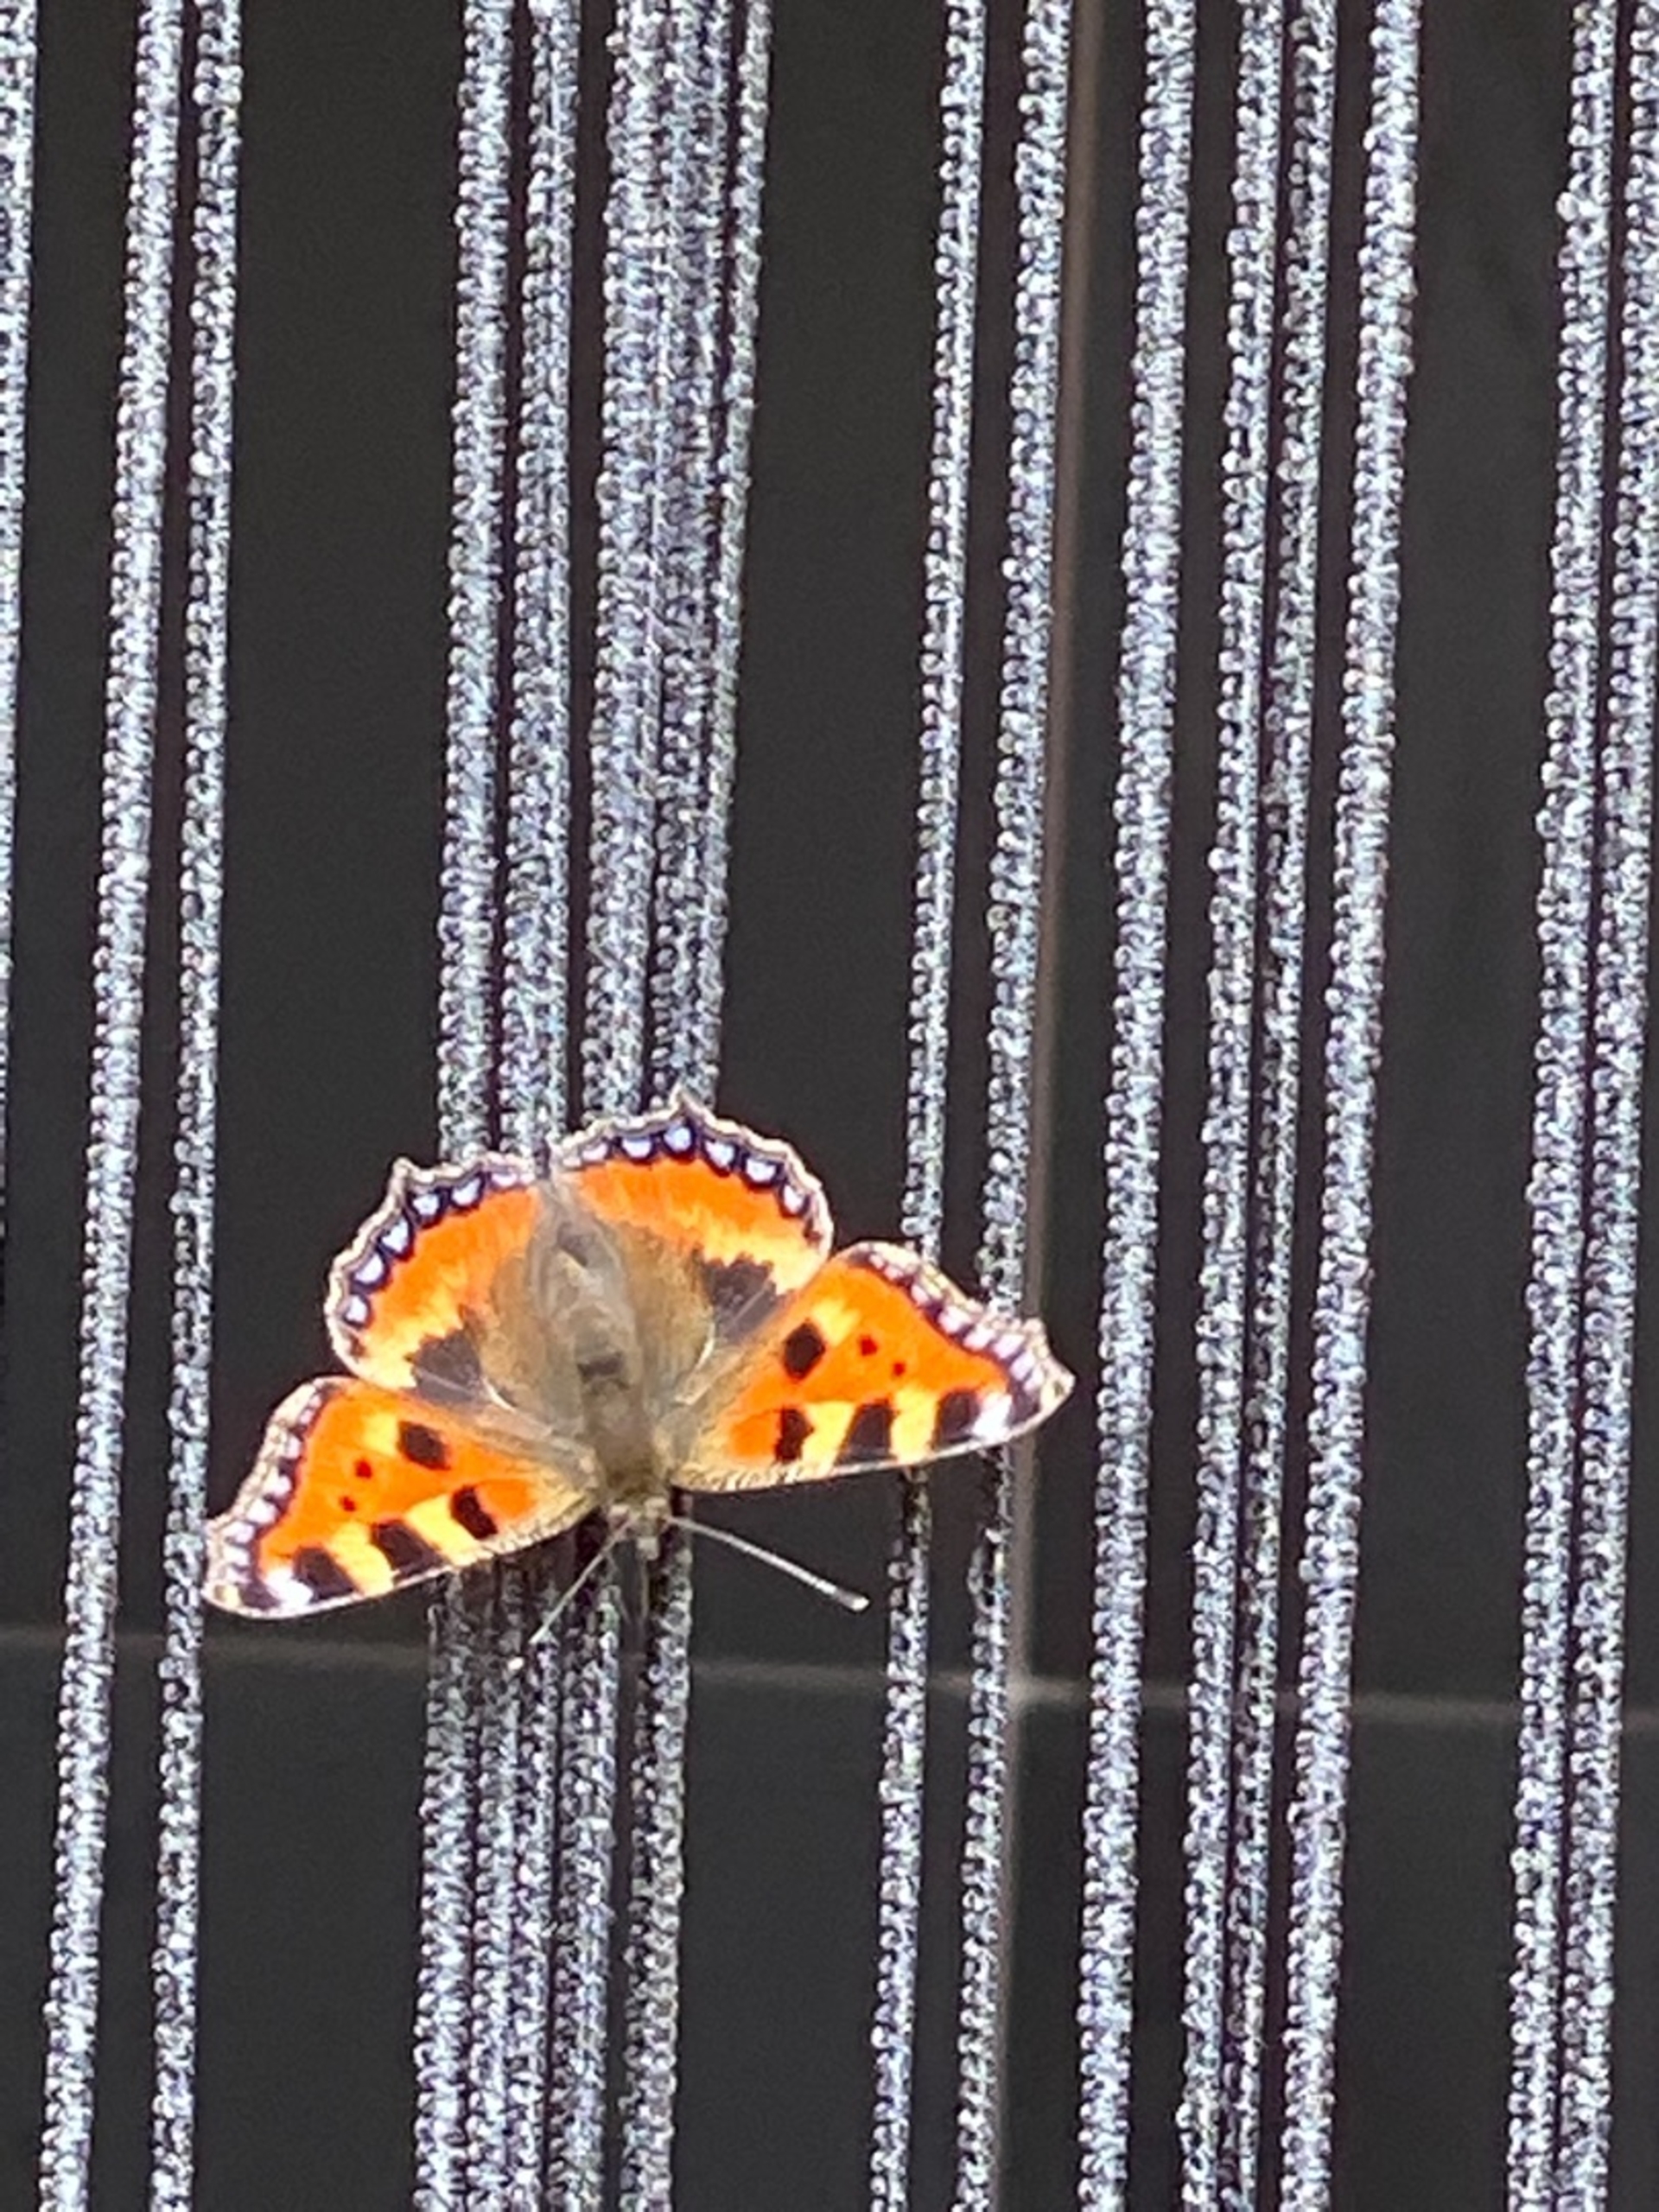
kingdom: Animalia
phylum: Arthropoda
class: Insecta
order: Lepidoptera
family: Nymphalidae
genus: Aglais
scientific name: Aglais urticae
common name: Nældens takvinge
